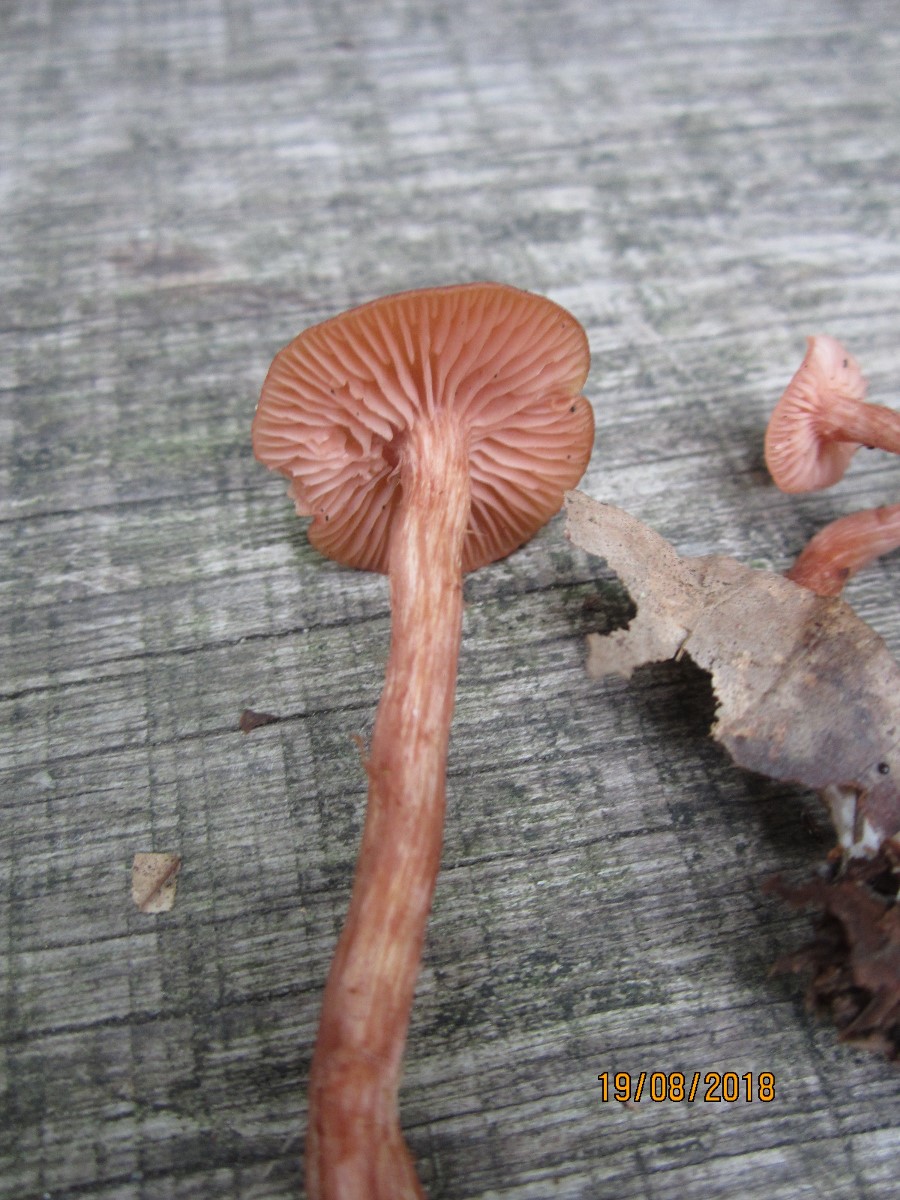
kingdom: Fungi
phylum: Basidiomycota
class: Agaricomycetes
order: Agaricales
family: Hydnangiaceae
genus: Laccaria
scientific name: Laccaria laccata
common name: rød ametysthat
